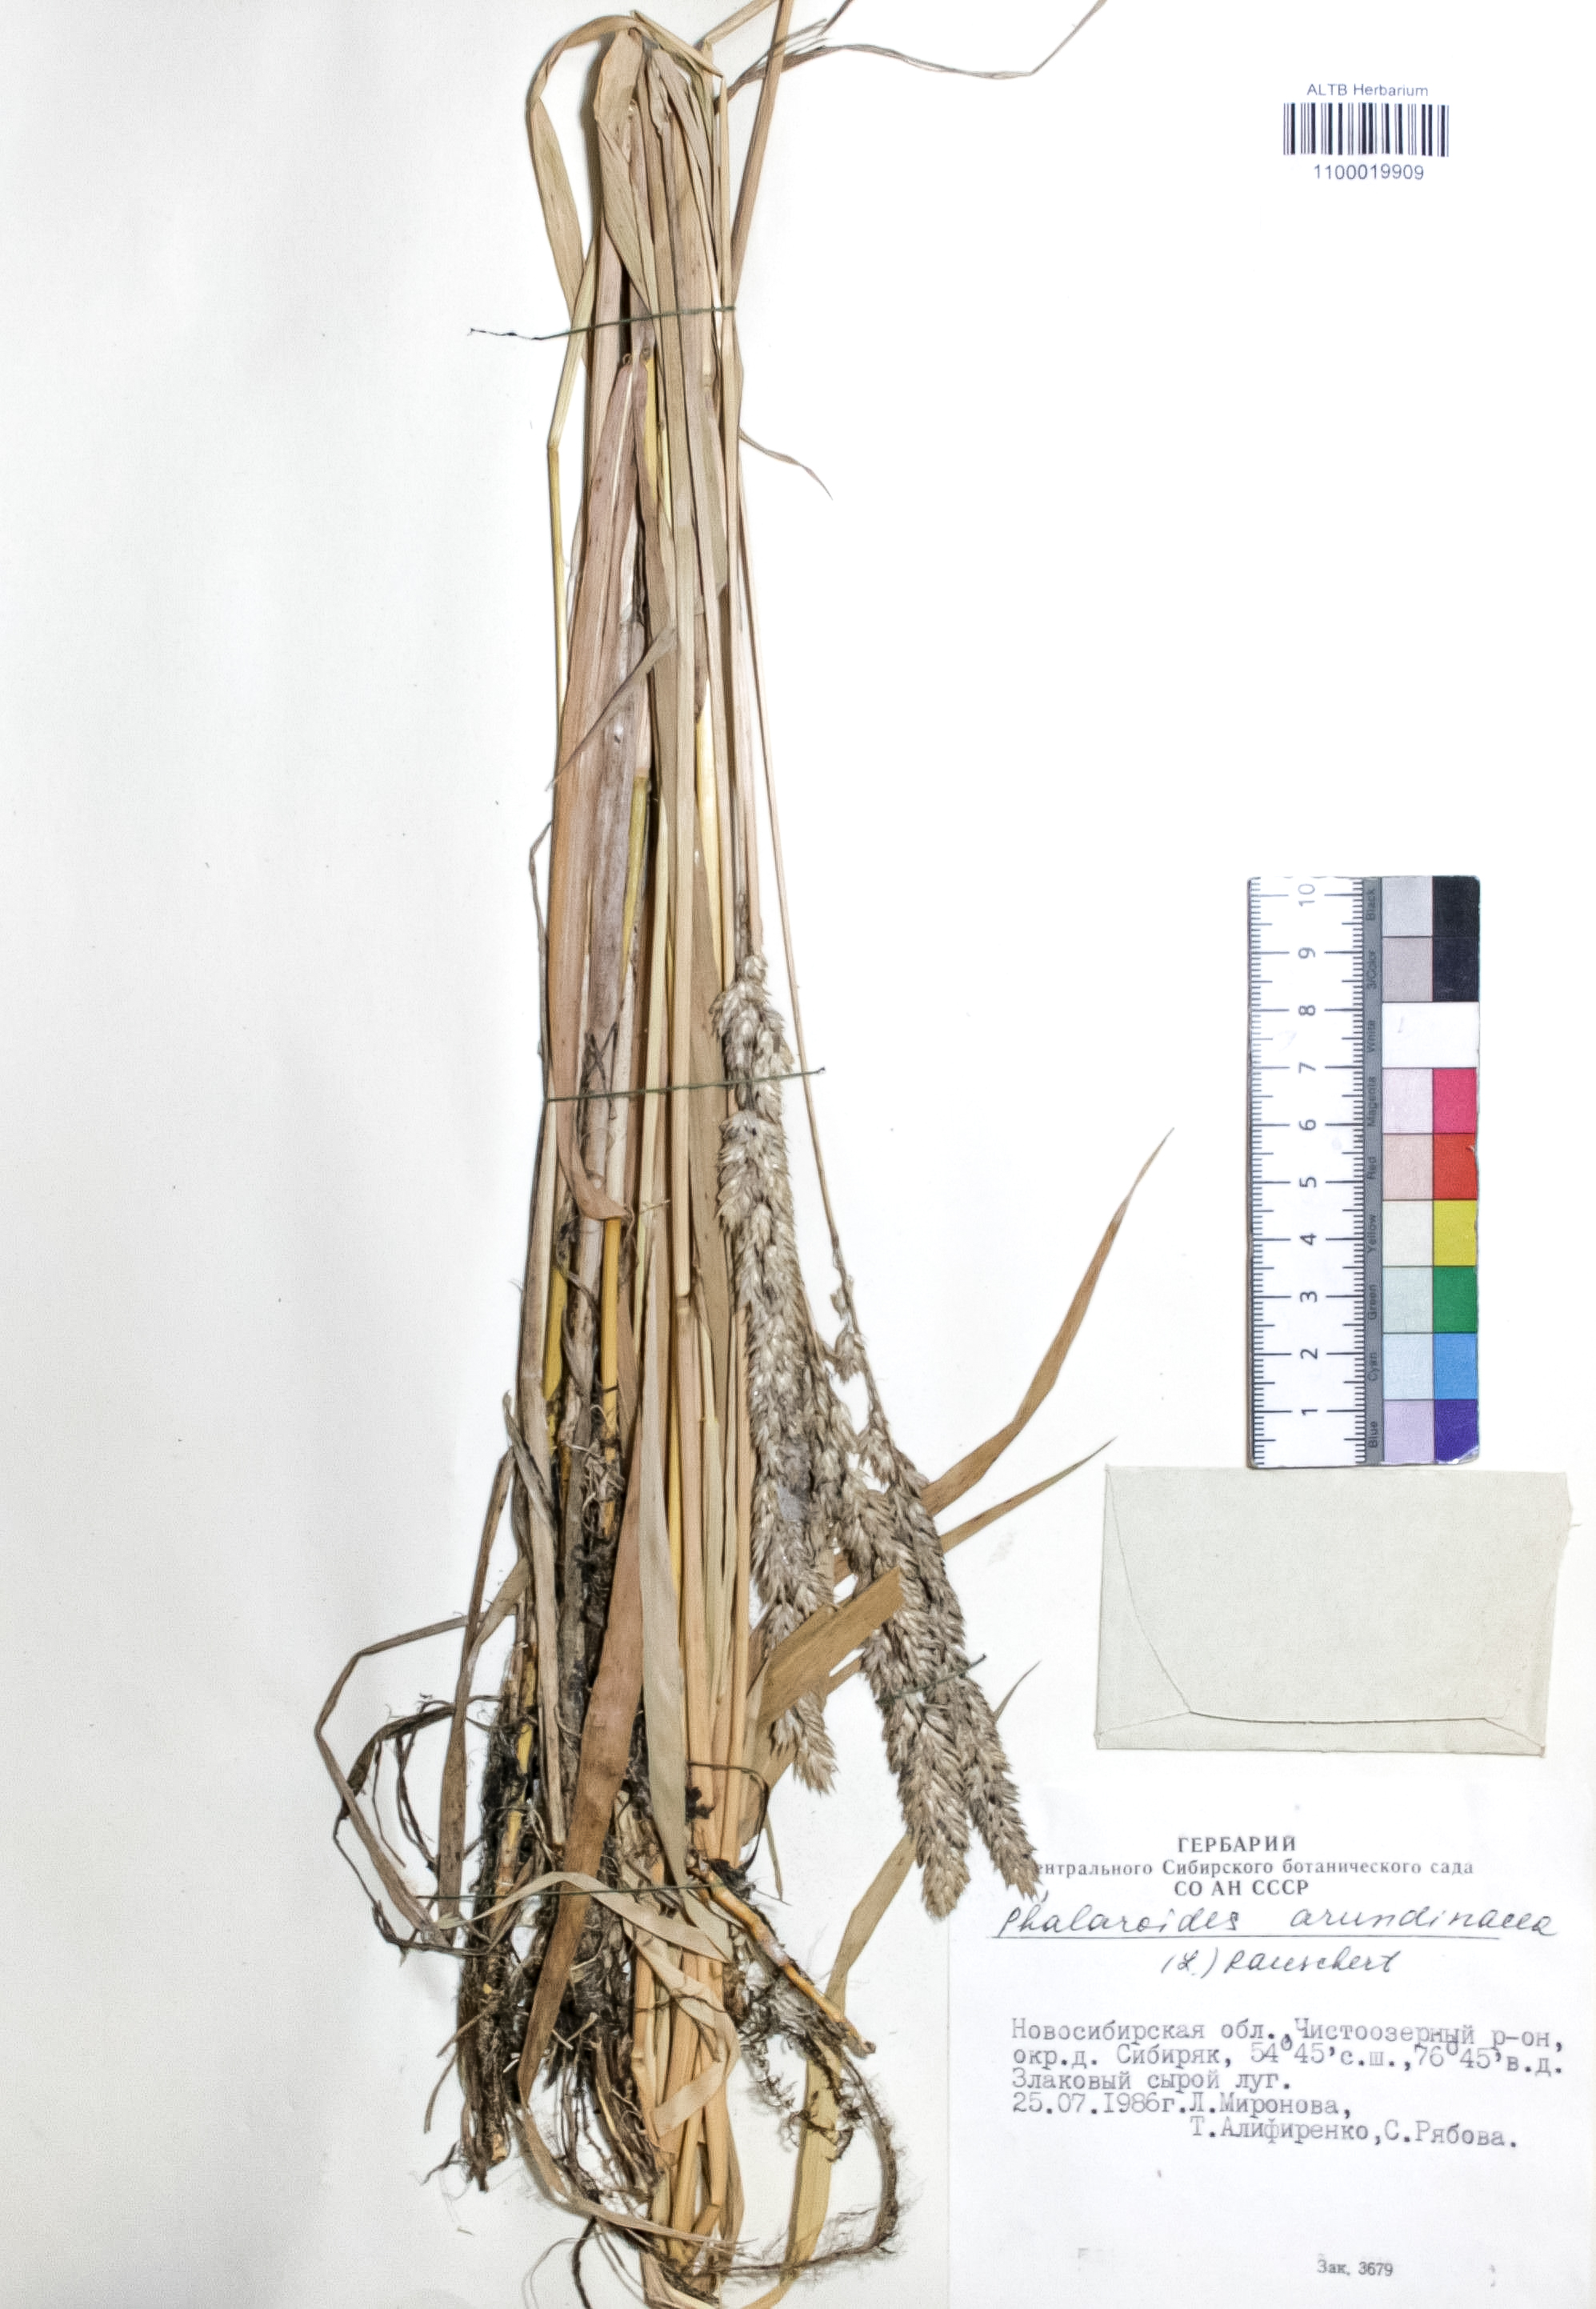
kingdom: Plantae
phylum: Tracheophyta
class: Liliopsida
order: Poales
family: Poaceae
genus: Phalaris
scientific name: Phalaris arundinacea
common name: Reed canary-grass
